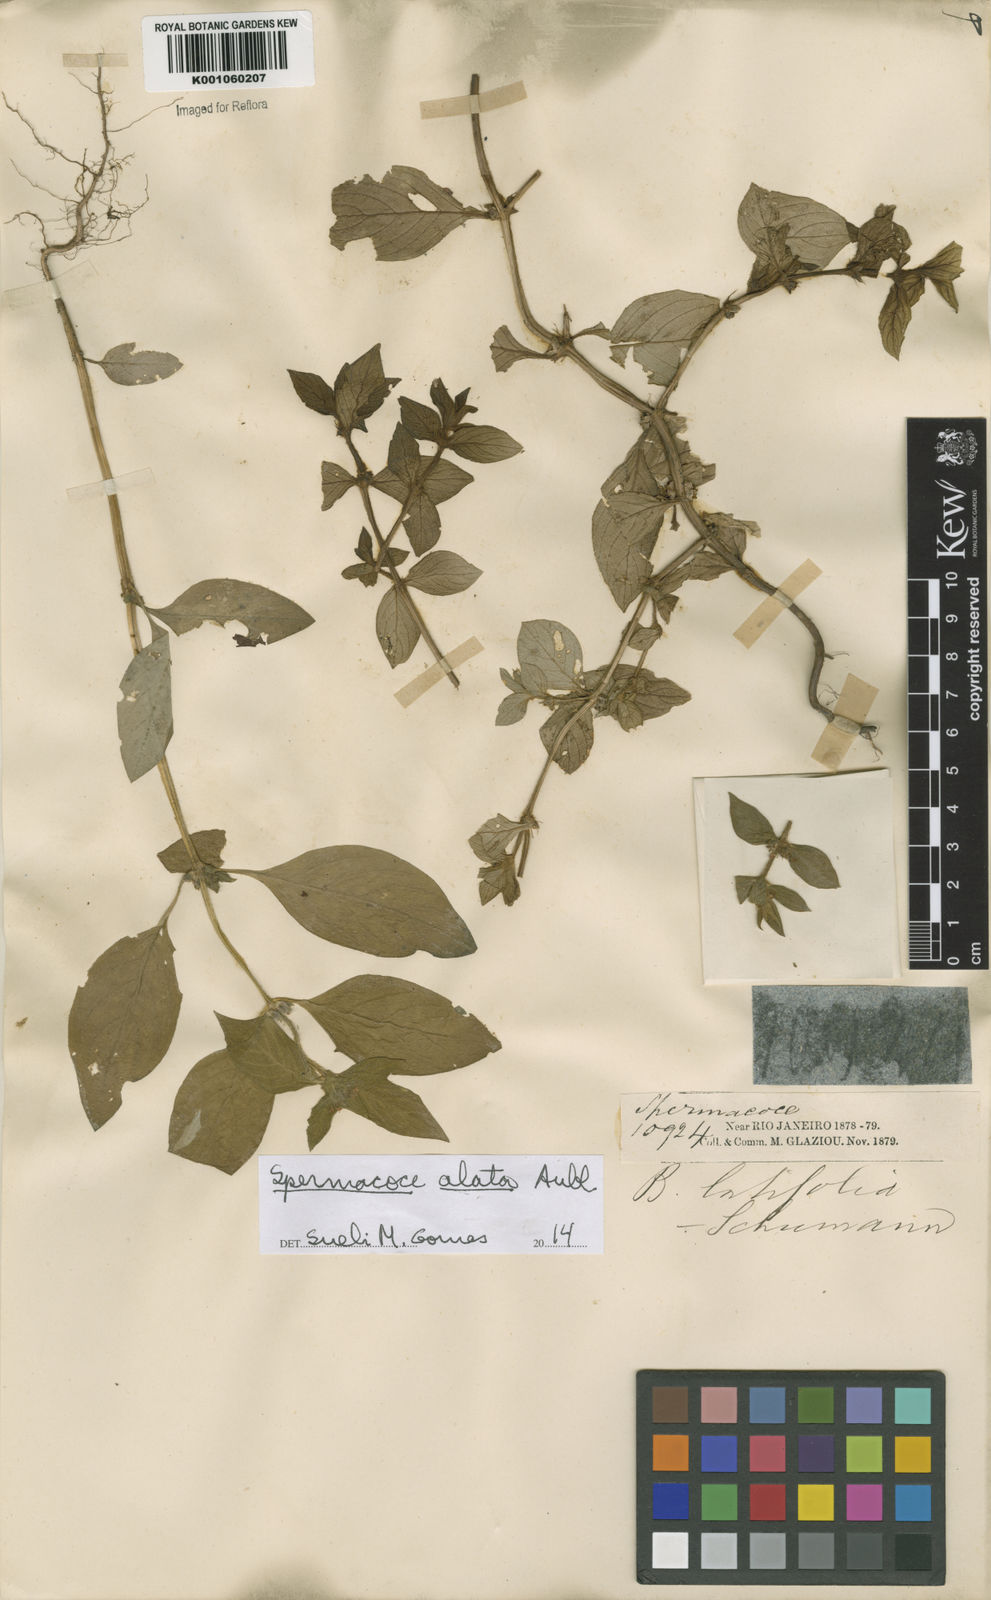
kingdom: Plantae
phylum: Tracheophyta
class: Magnoliopsida
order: Gentianales
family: Rubiaceae
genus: Spermacoce
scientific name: Spermacoce
